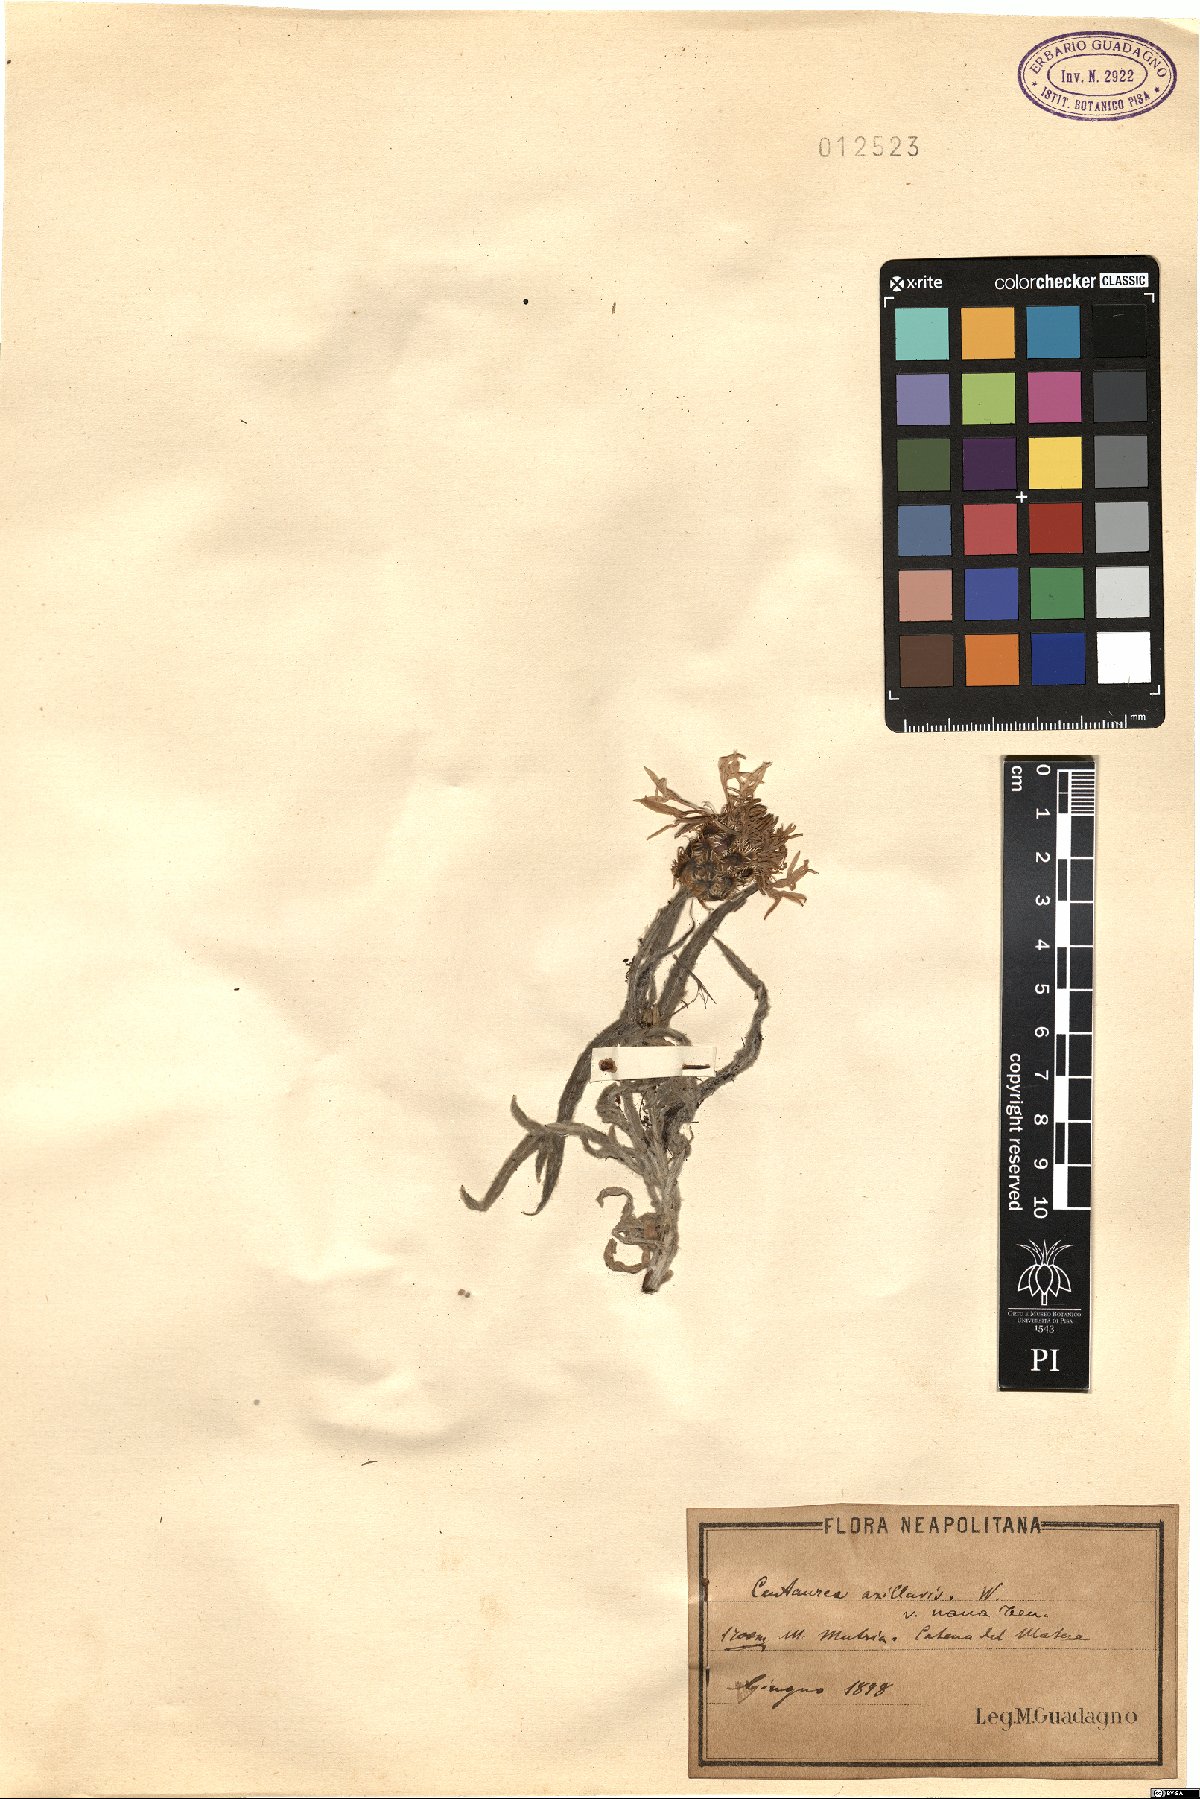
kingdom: Plantae
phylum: Tracheophyta
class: Magnoliopsida
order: Asterales
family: Asteraceae
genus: Centaurea
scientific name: Centaurea triumfettii
